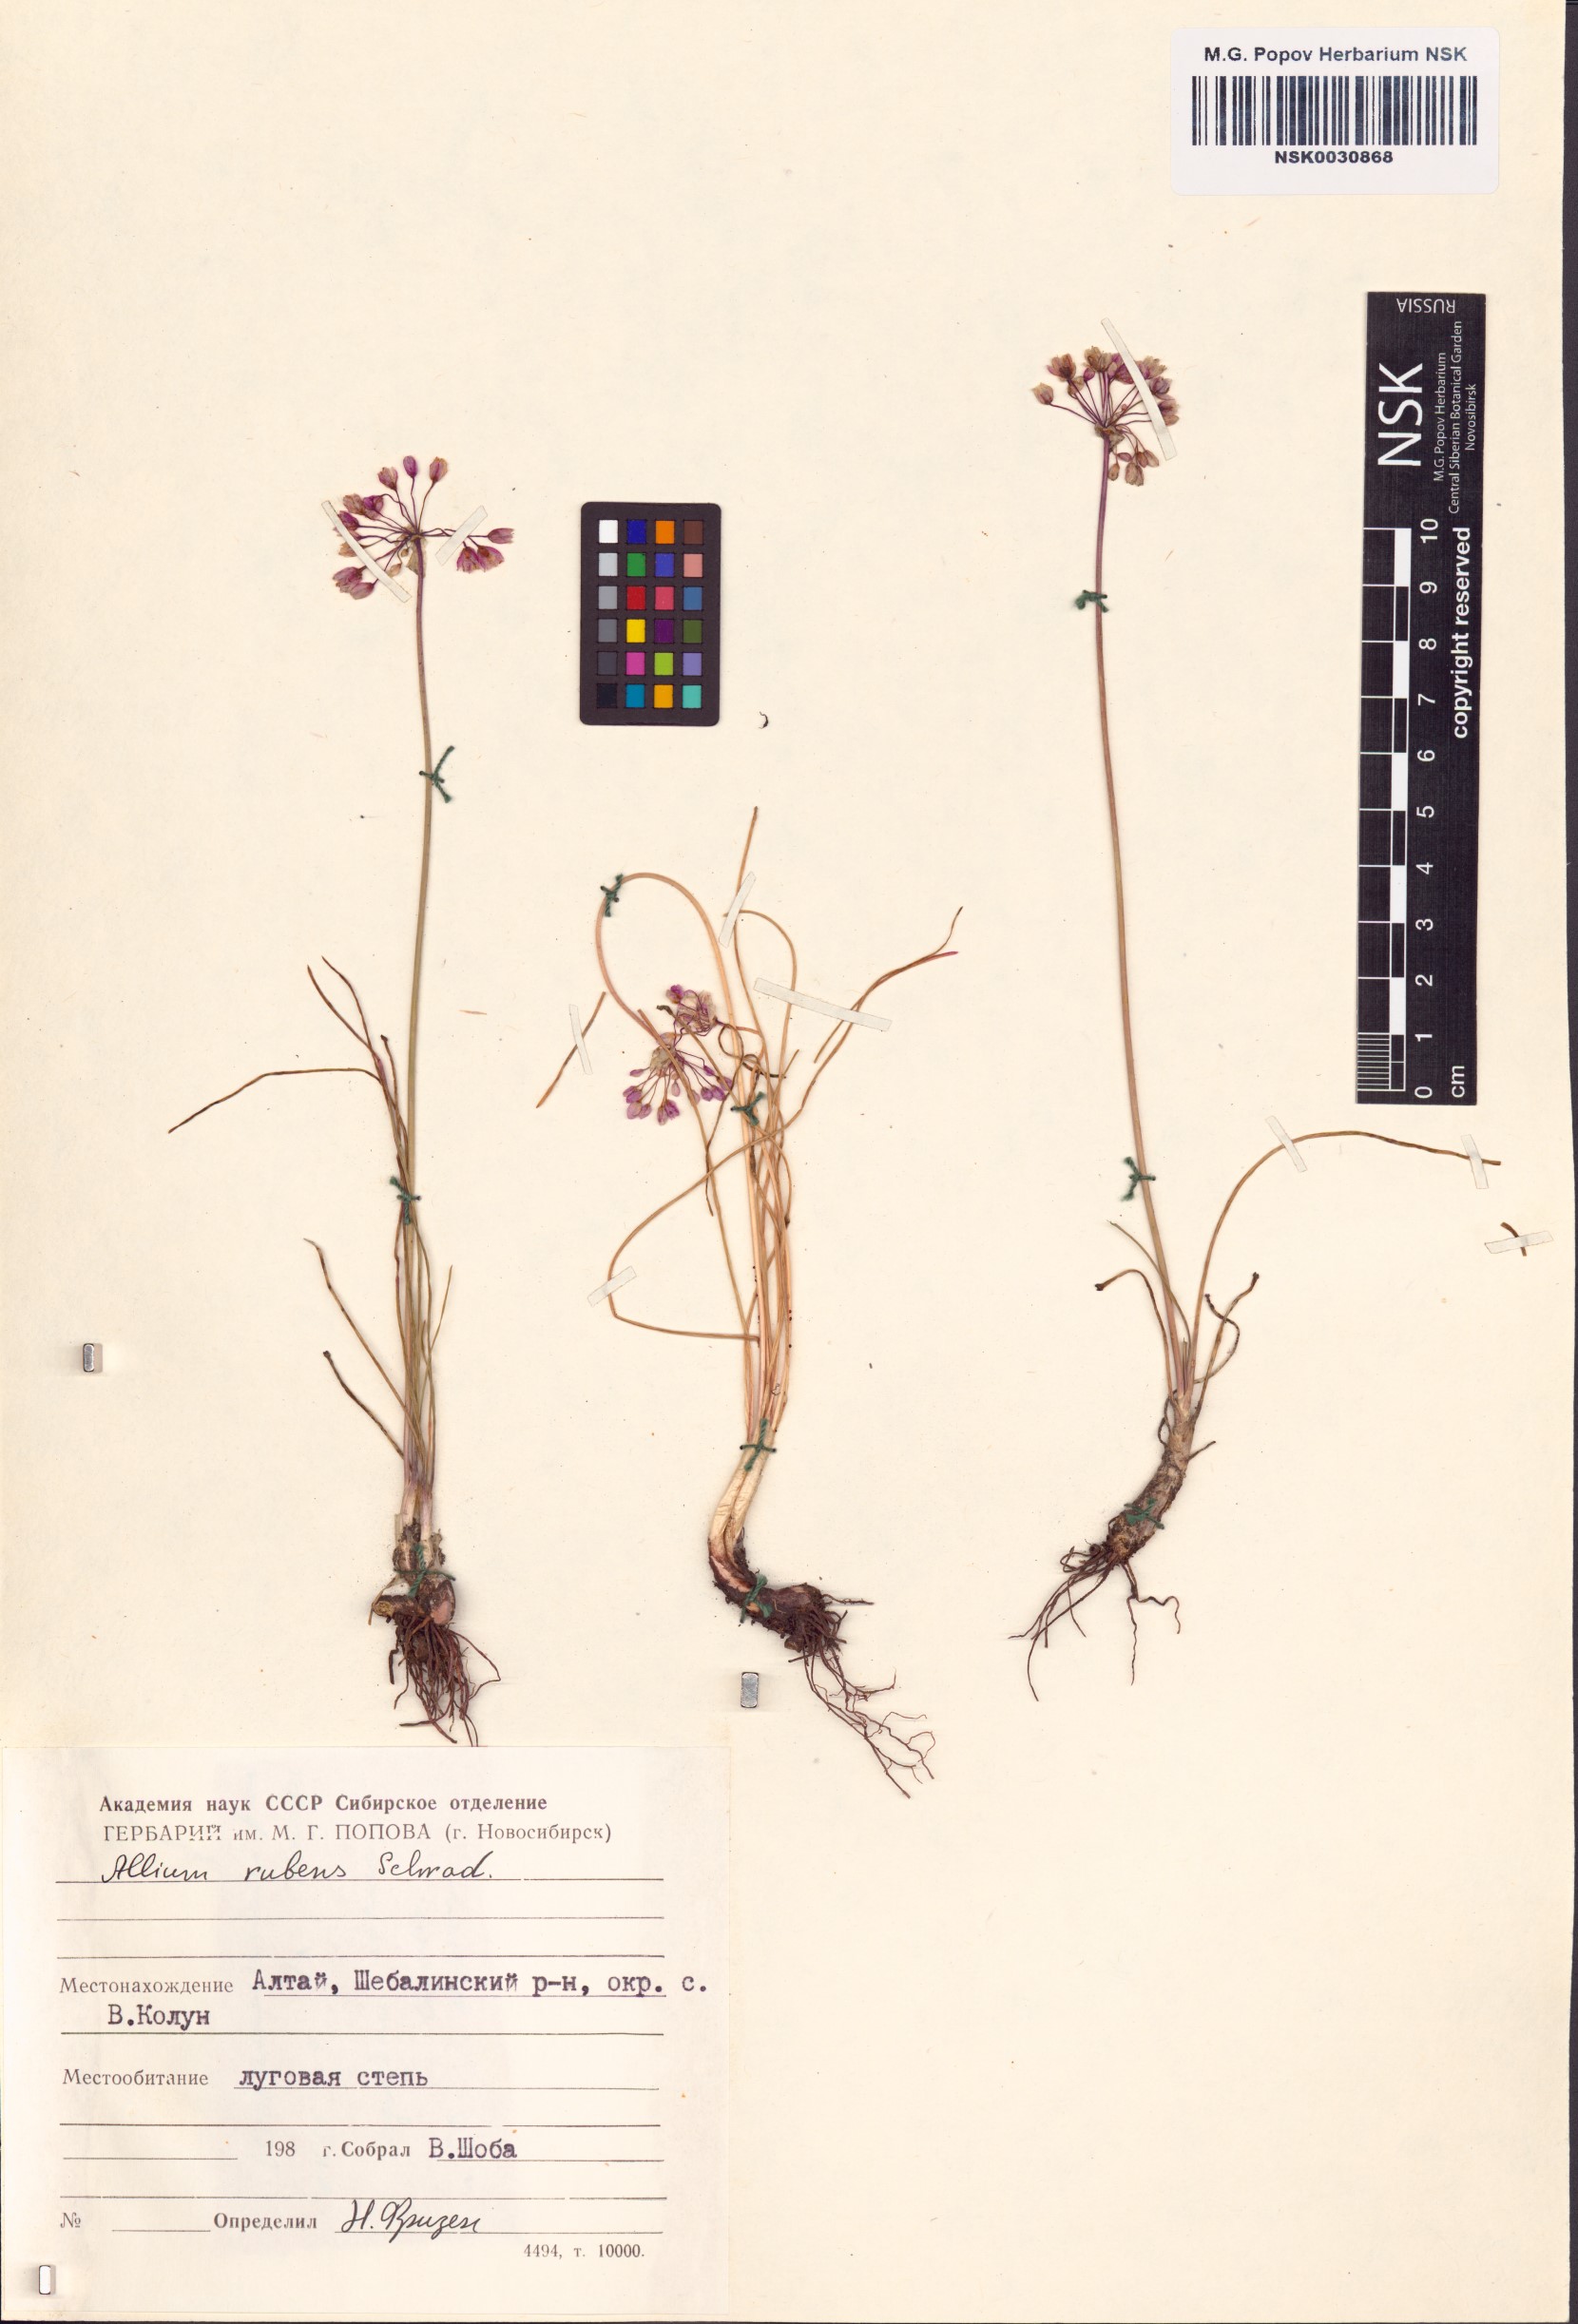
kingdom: Plantae
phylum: Tracheophyta
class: Liliopsida
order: Asparagales
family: Amaryllidaceae
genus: Allium
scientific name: Allium rubens
